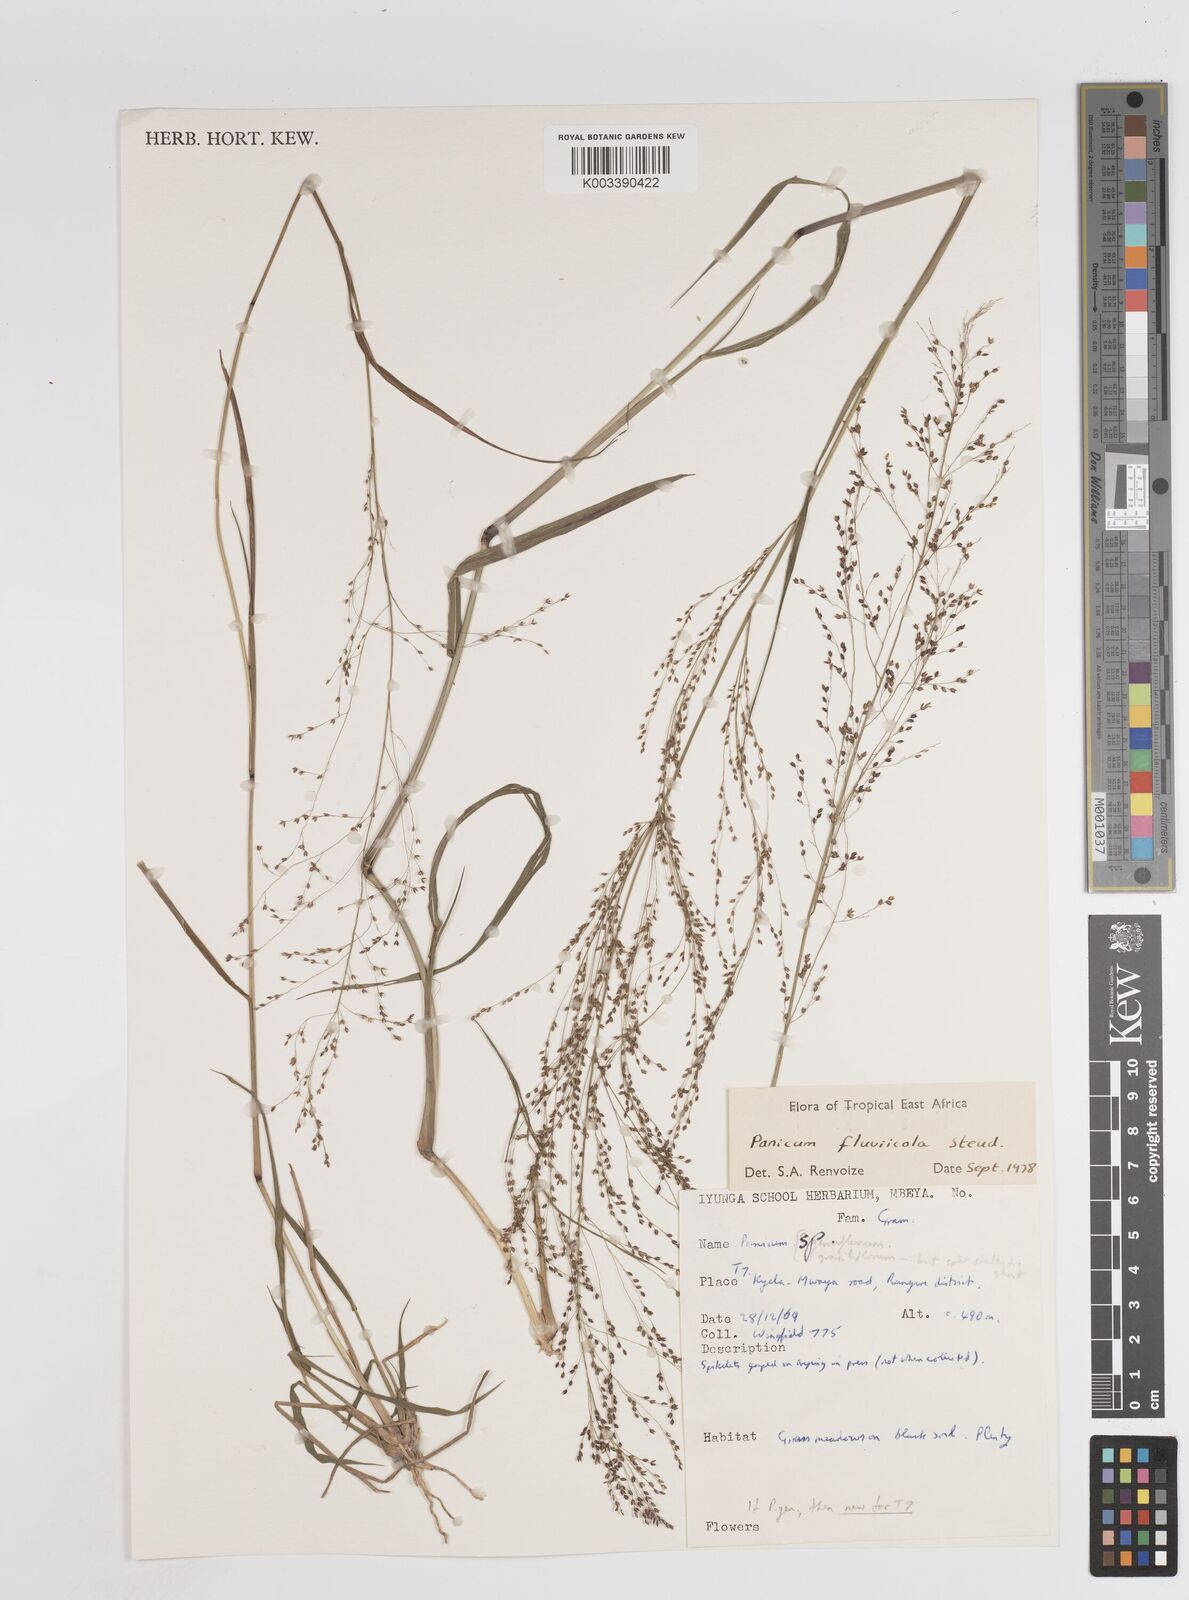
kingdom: Plantae
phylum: Tracheophyta
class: Liliopsida
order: Poales
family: Poaceae
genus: Panicum
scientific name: Panicum fluviicola
